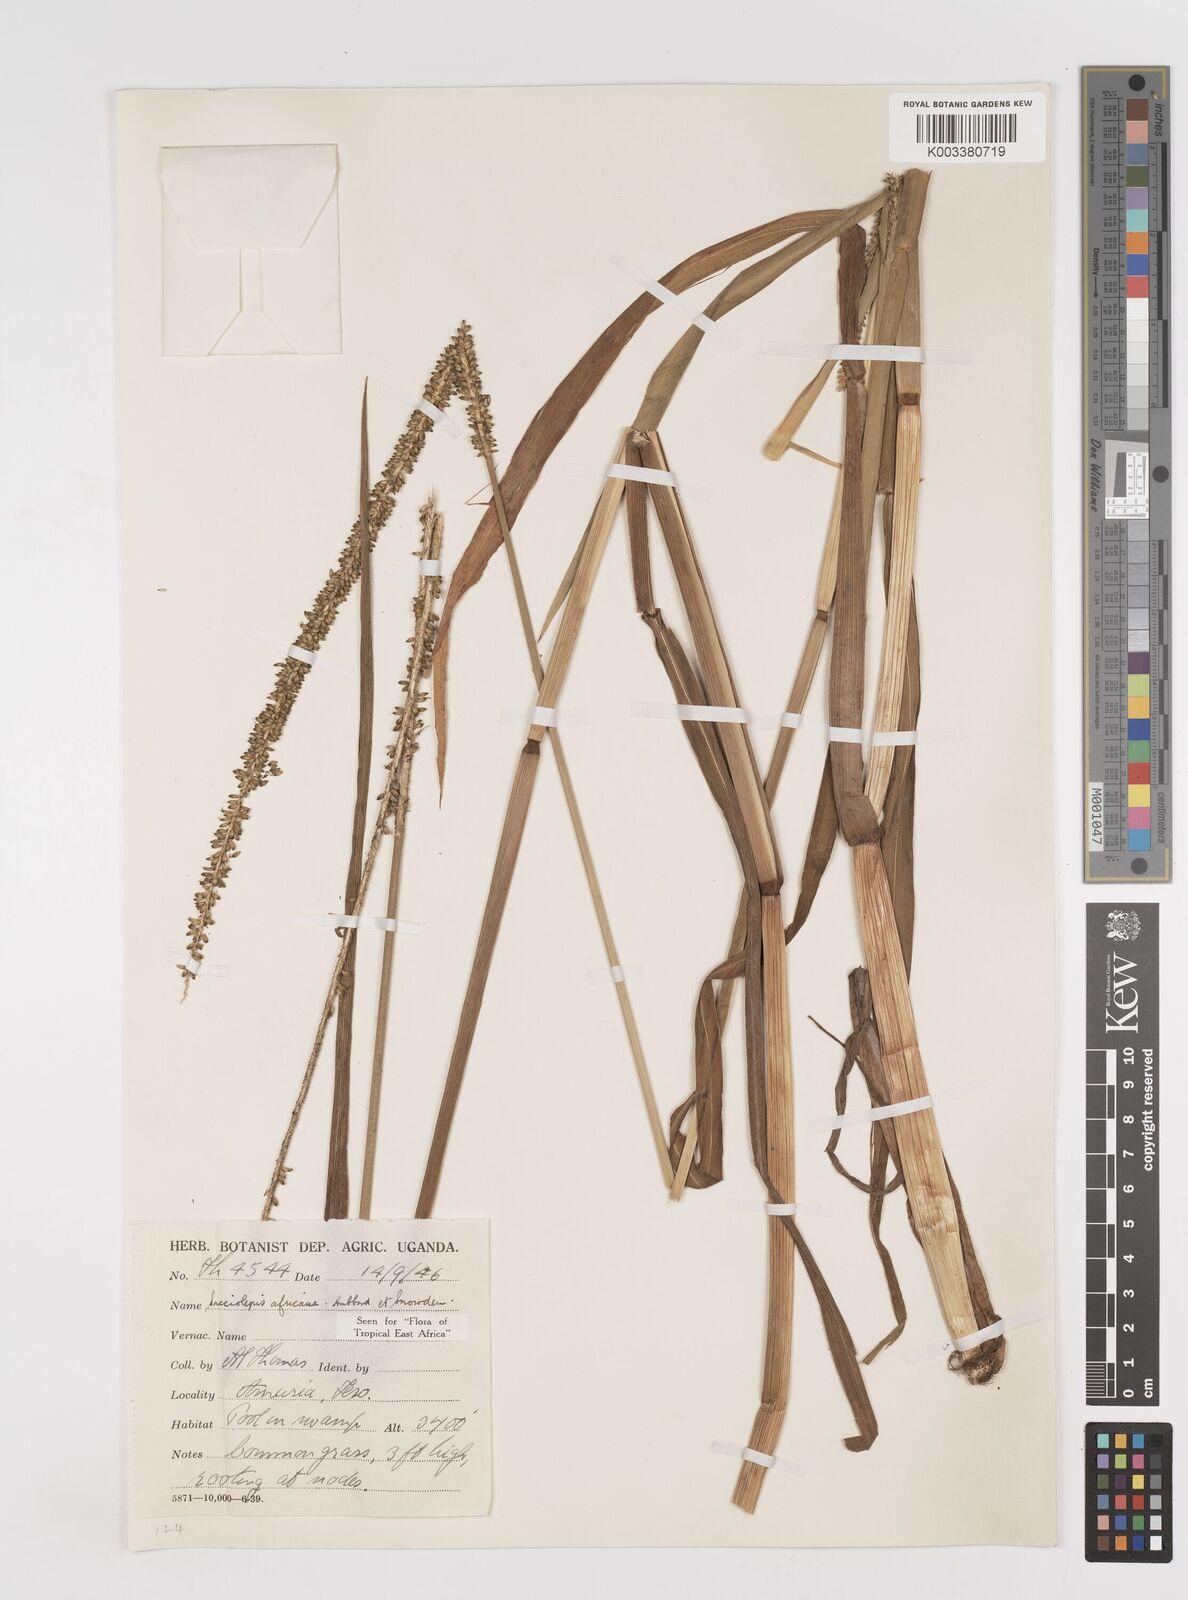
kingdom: Plantae
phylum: Tracheophyta
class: Liliopsida
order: Poales
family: Poaceae
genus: Sacciolepis
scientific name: Sacciolepis africana
